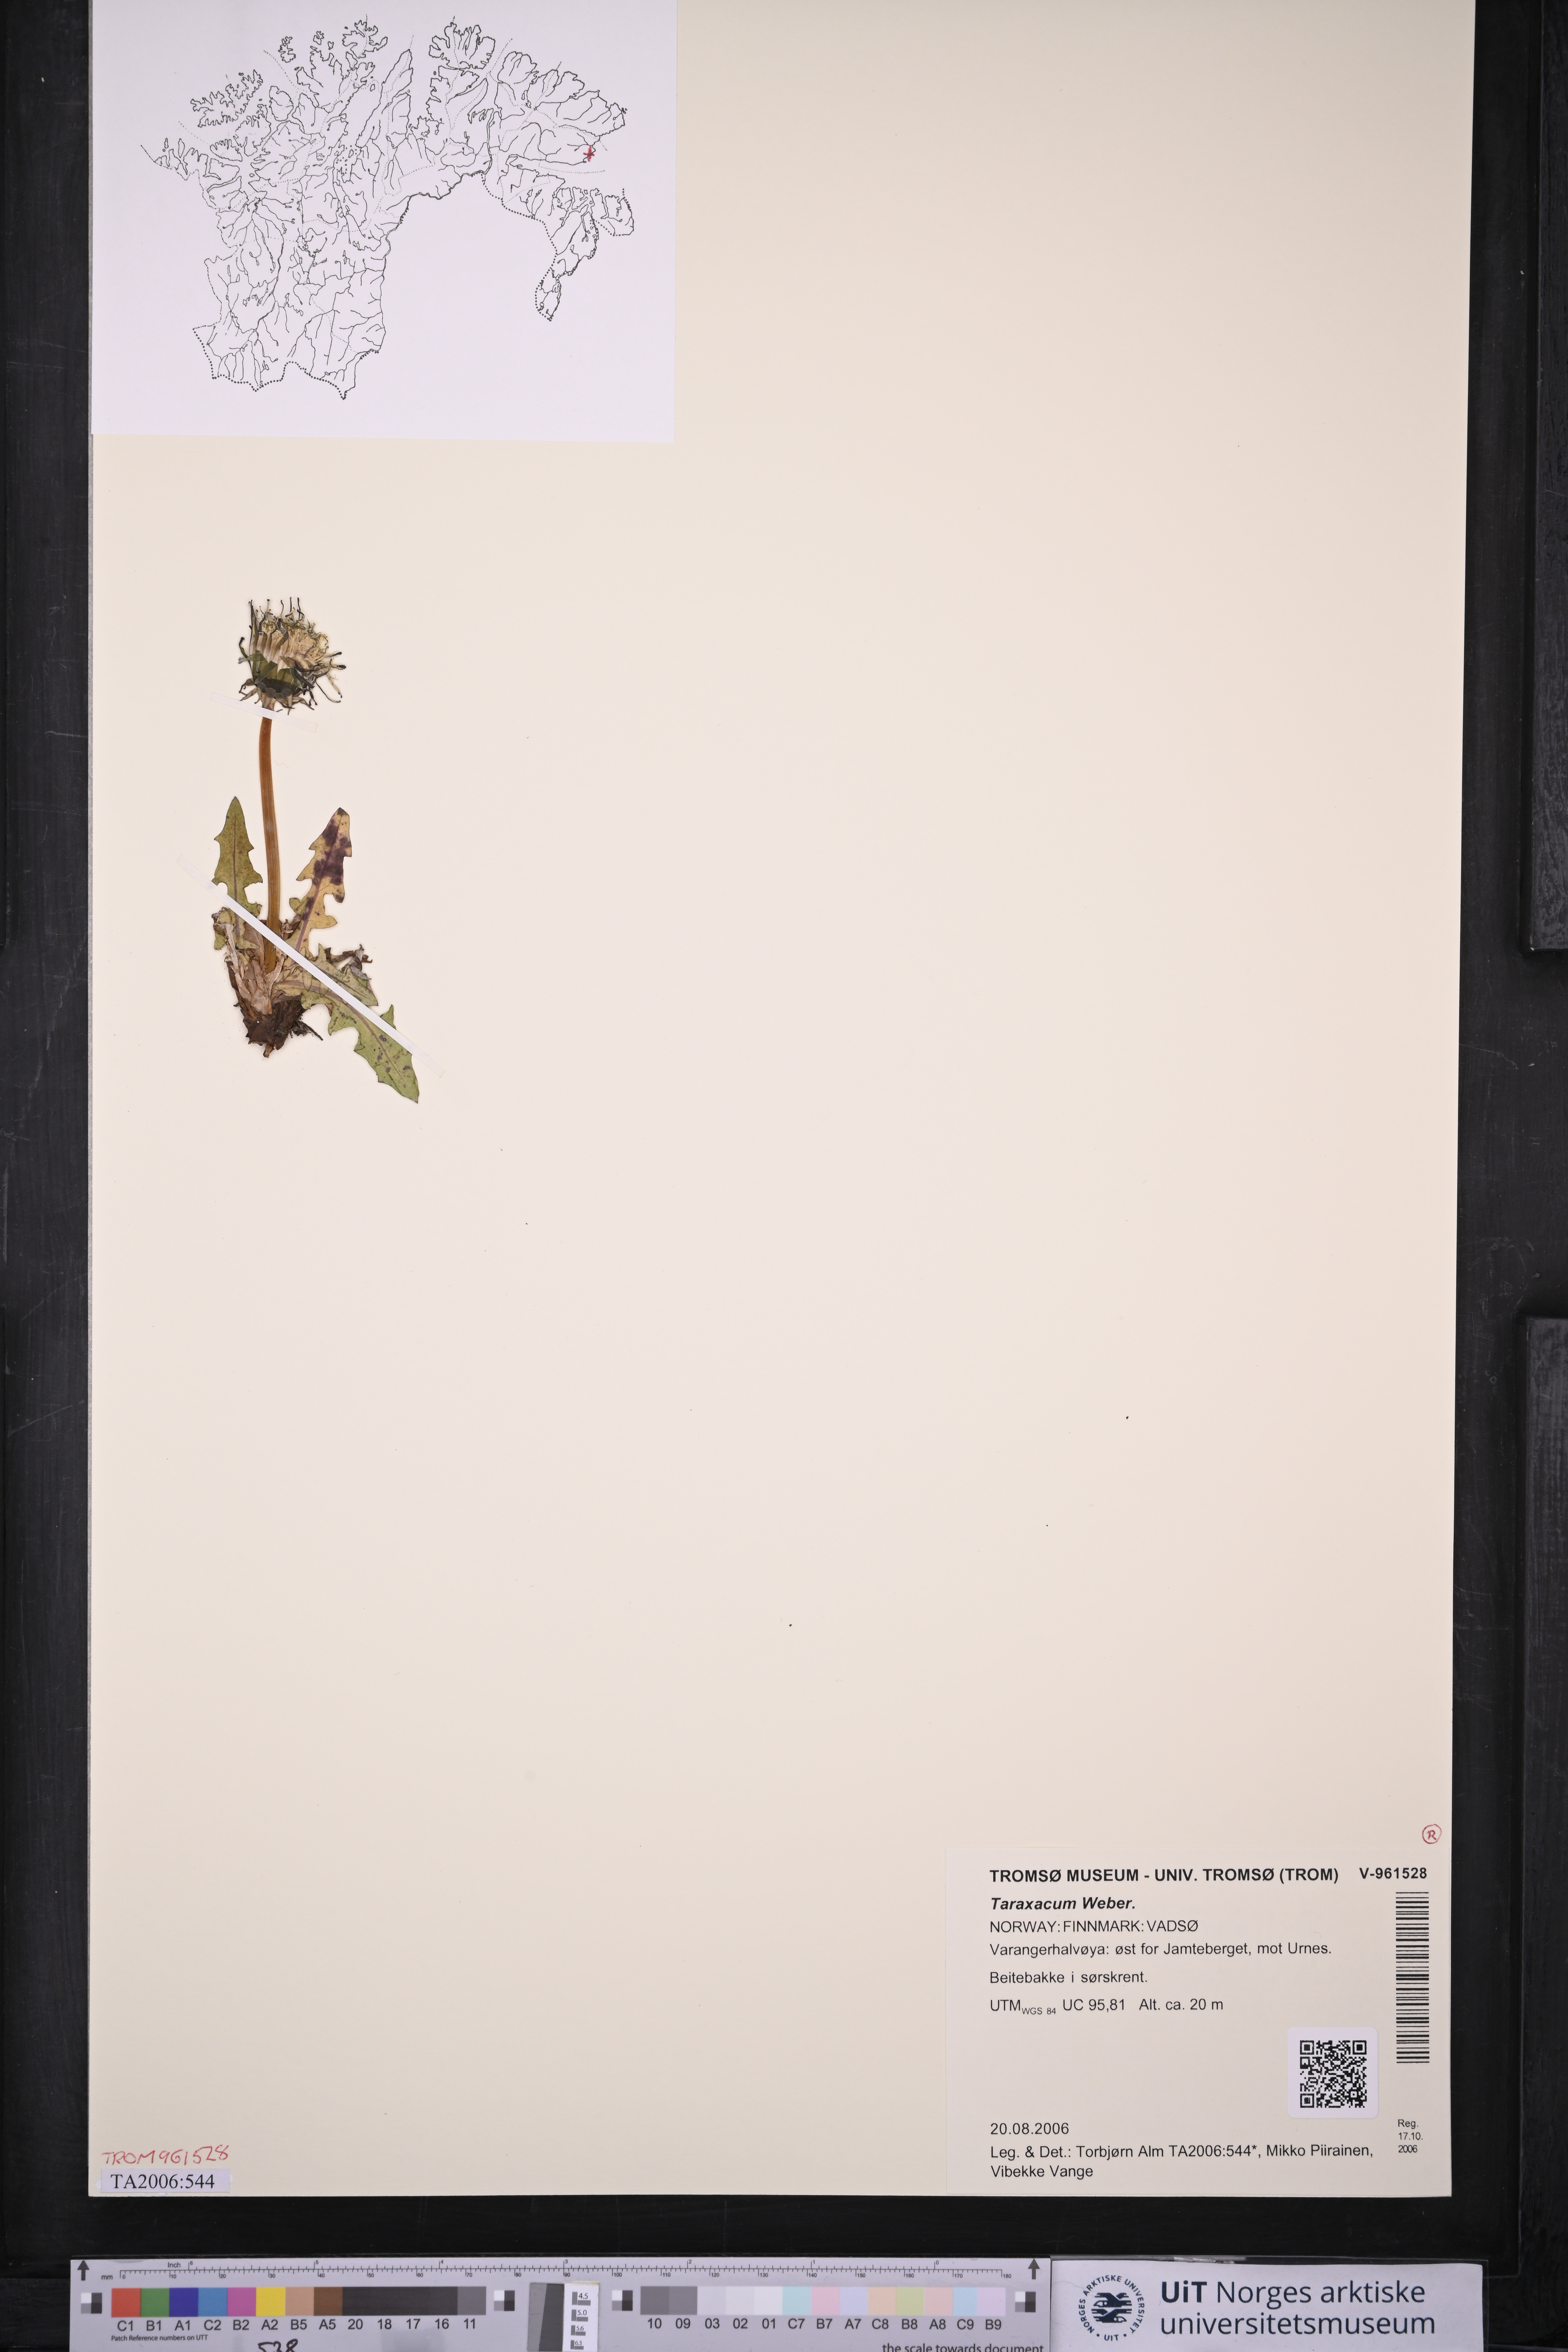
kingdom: Plantae
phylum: Tracheophyta
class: Magnoliopsida
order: Asterales
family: Asteraceae
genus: Taraxacum
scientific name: Taraxacum
